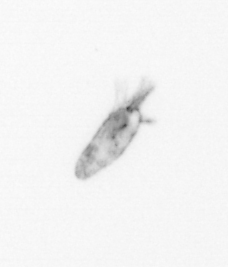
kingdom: Animalia
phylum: Arthropoda
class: Maxillopoda
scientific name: Maxillopoda
